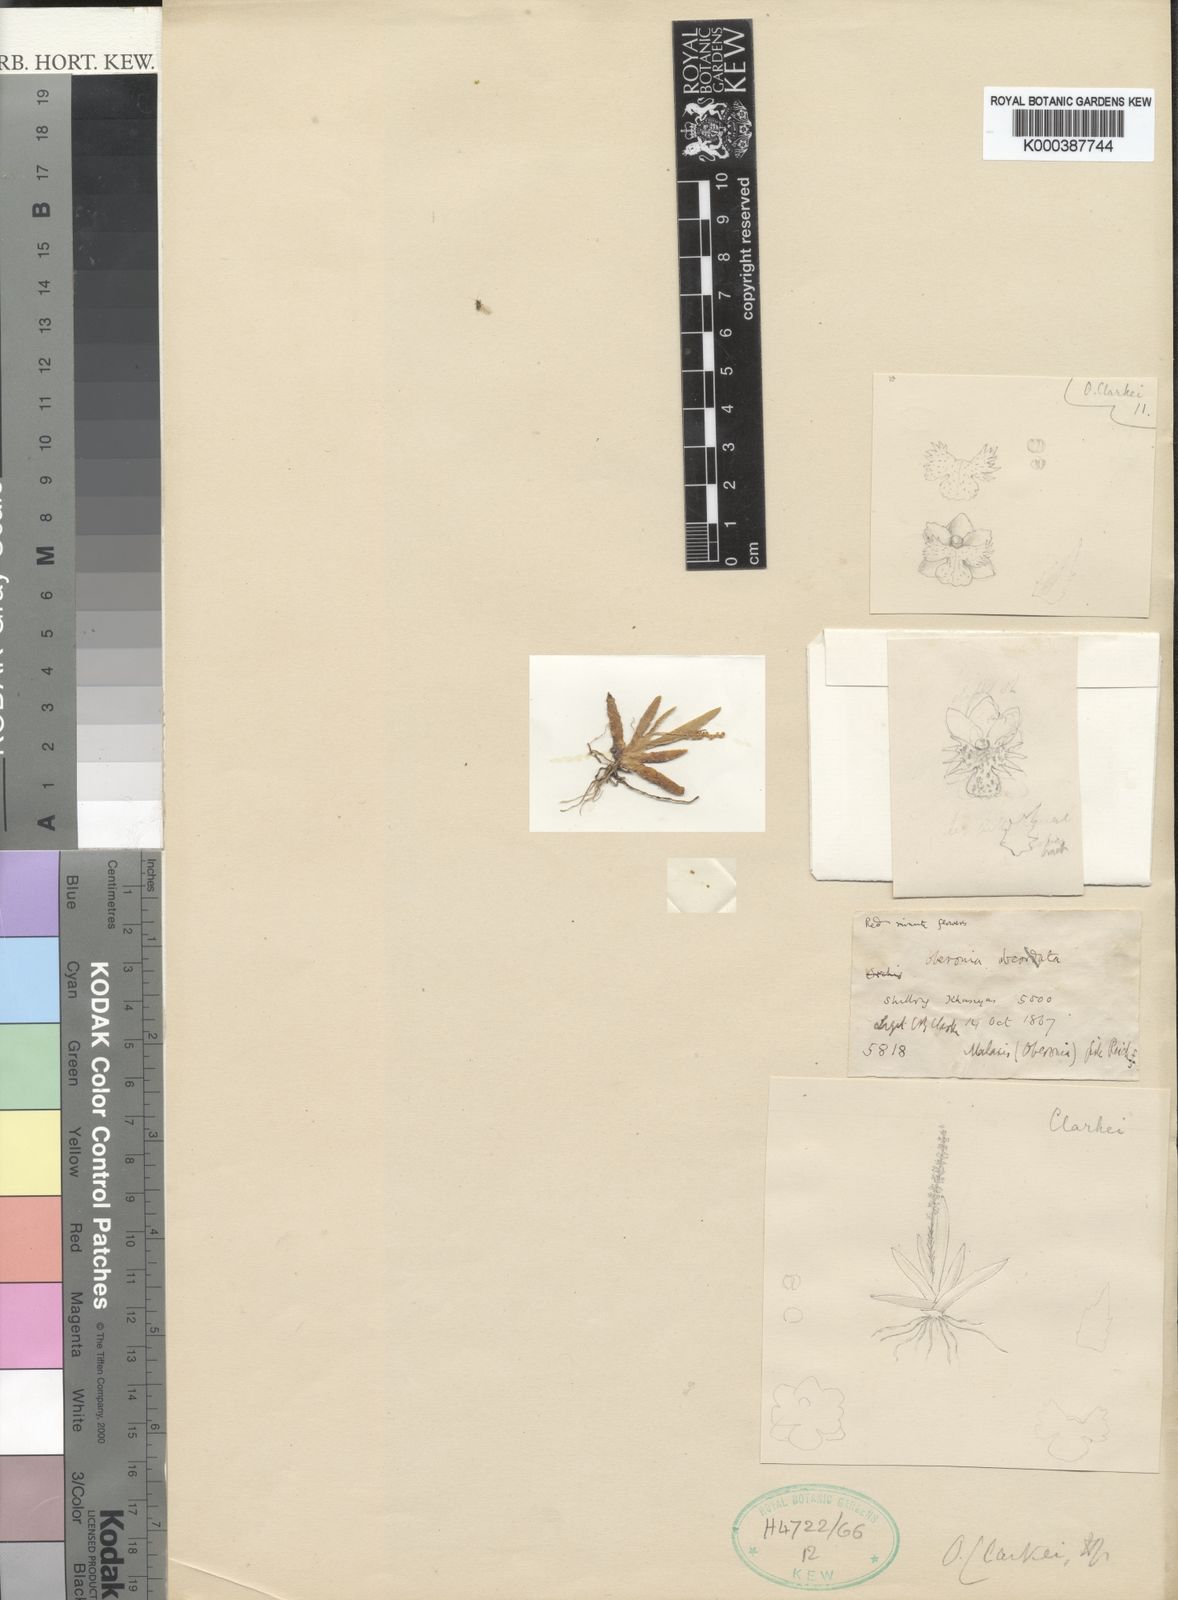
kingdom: Plantae
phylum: Tracheophyta
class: Liliopsida
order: Asparagales
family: Orchidaceae
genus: Oberonia
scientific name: Oberonia clarkei
